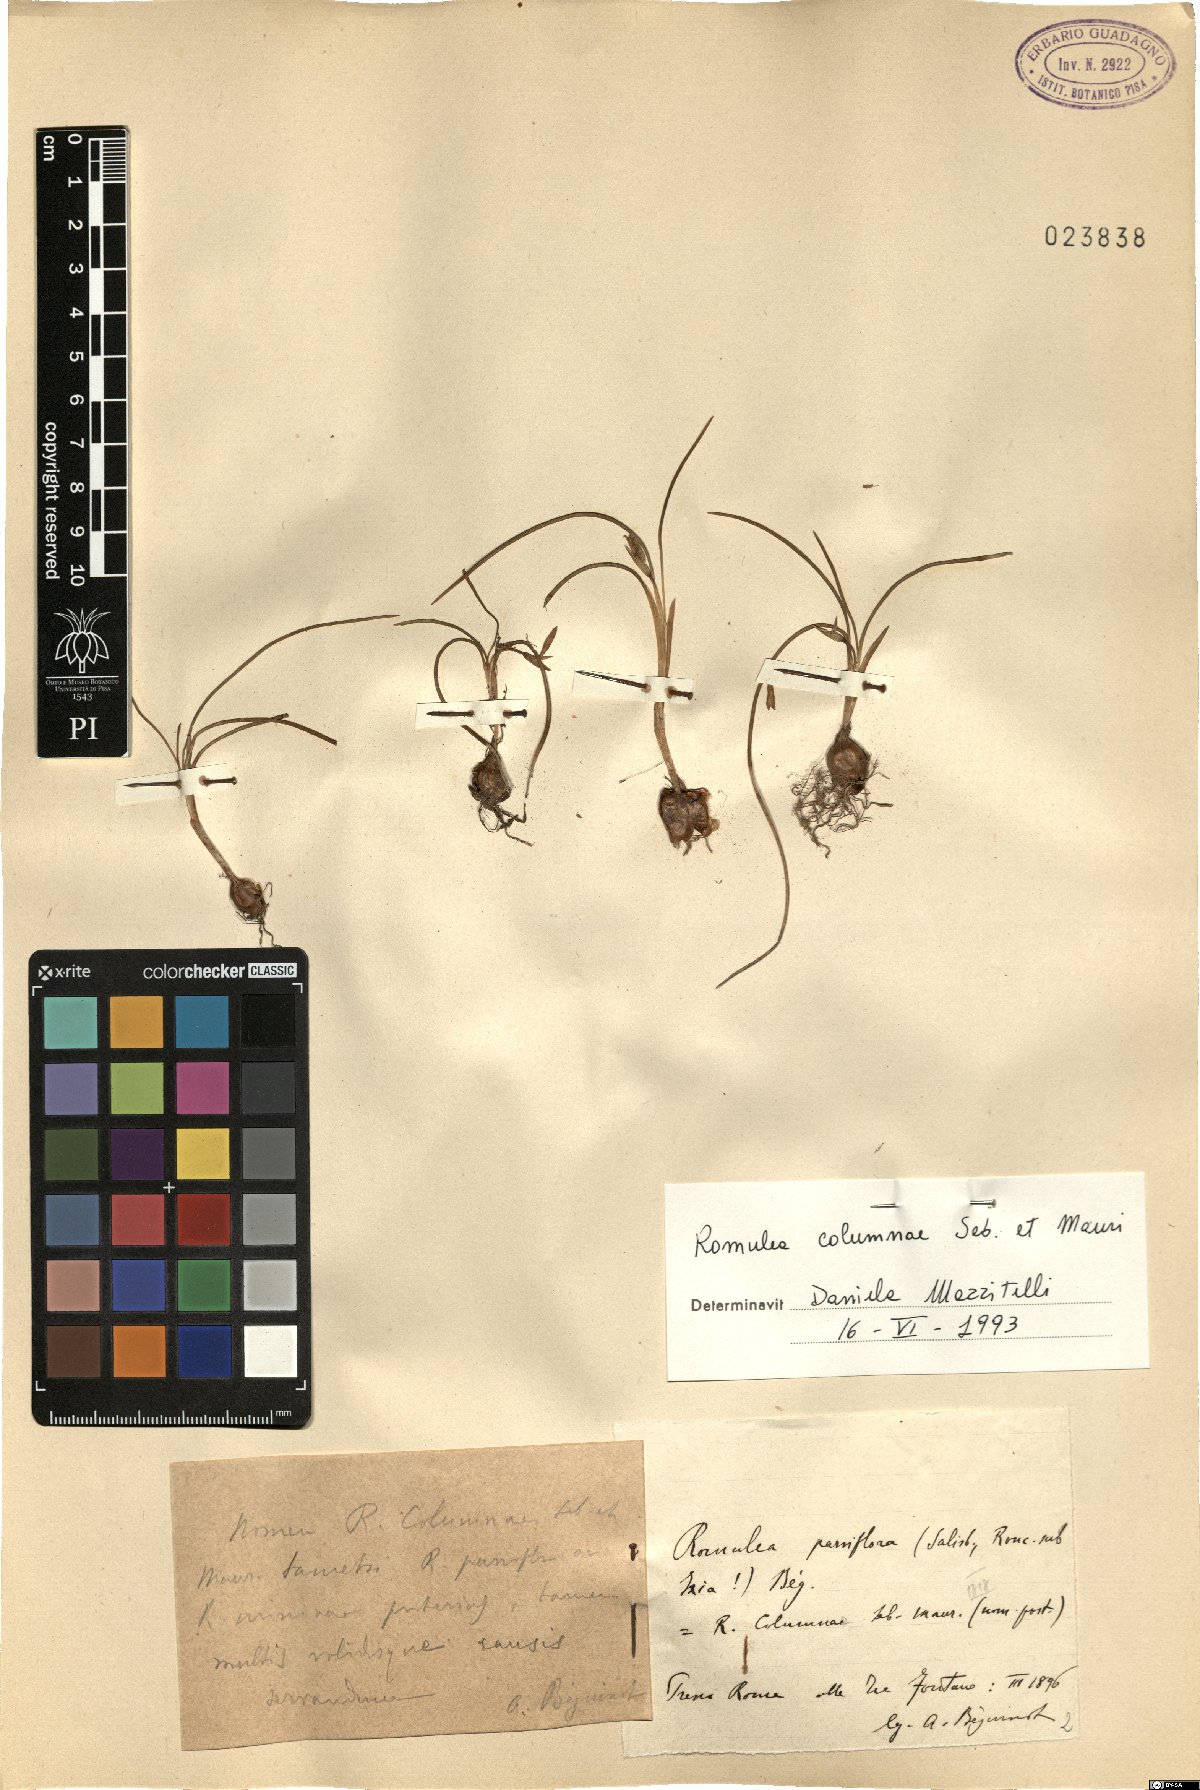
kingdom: Plantae
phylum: Tracheophyta
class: Liliopsida
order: Asparagales
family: Iridaceae
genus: Romulea
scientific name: Romulea columnae
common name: Sand-crocus
